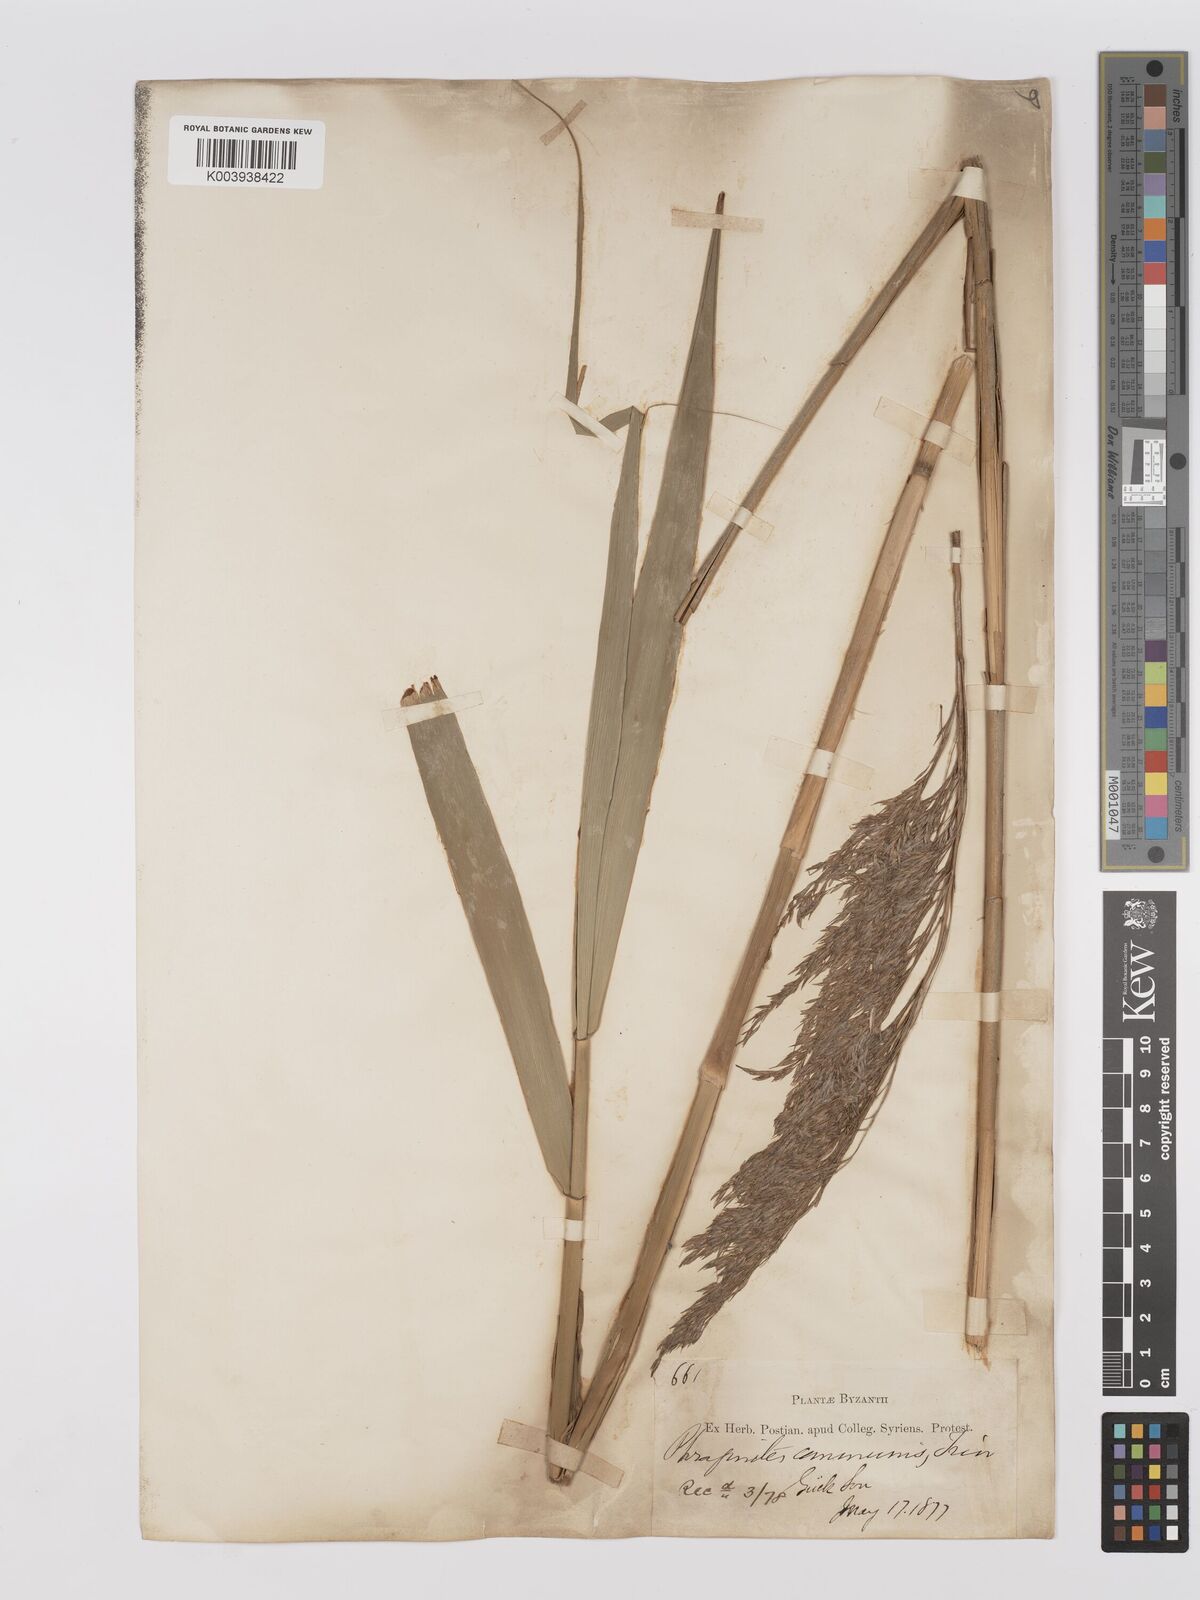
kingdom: Plantae
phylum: Tracheophyta
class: Liliopsida
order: Poales
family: Poaceae
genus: Phragmites
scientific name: Phragmites australis
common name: Common reed
